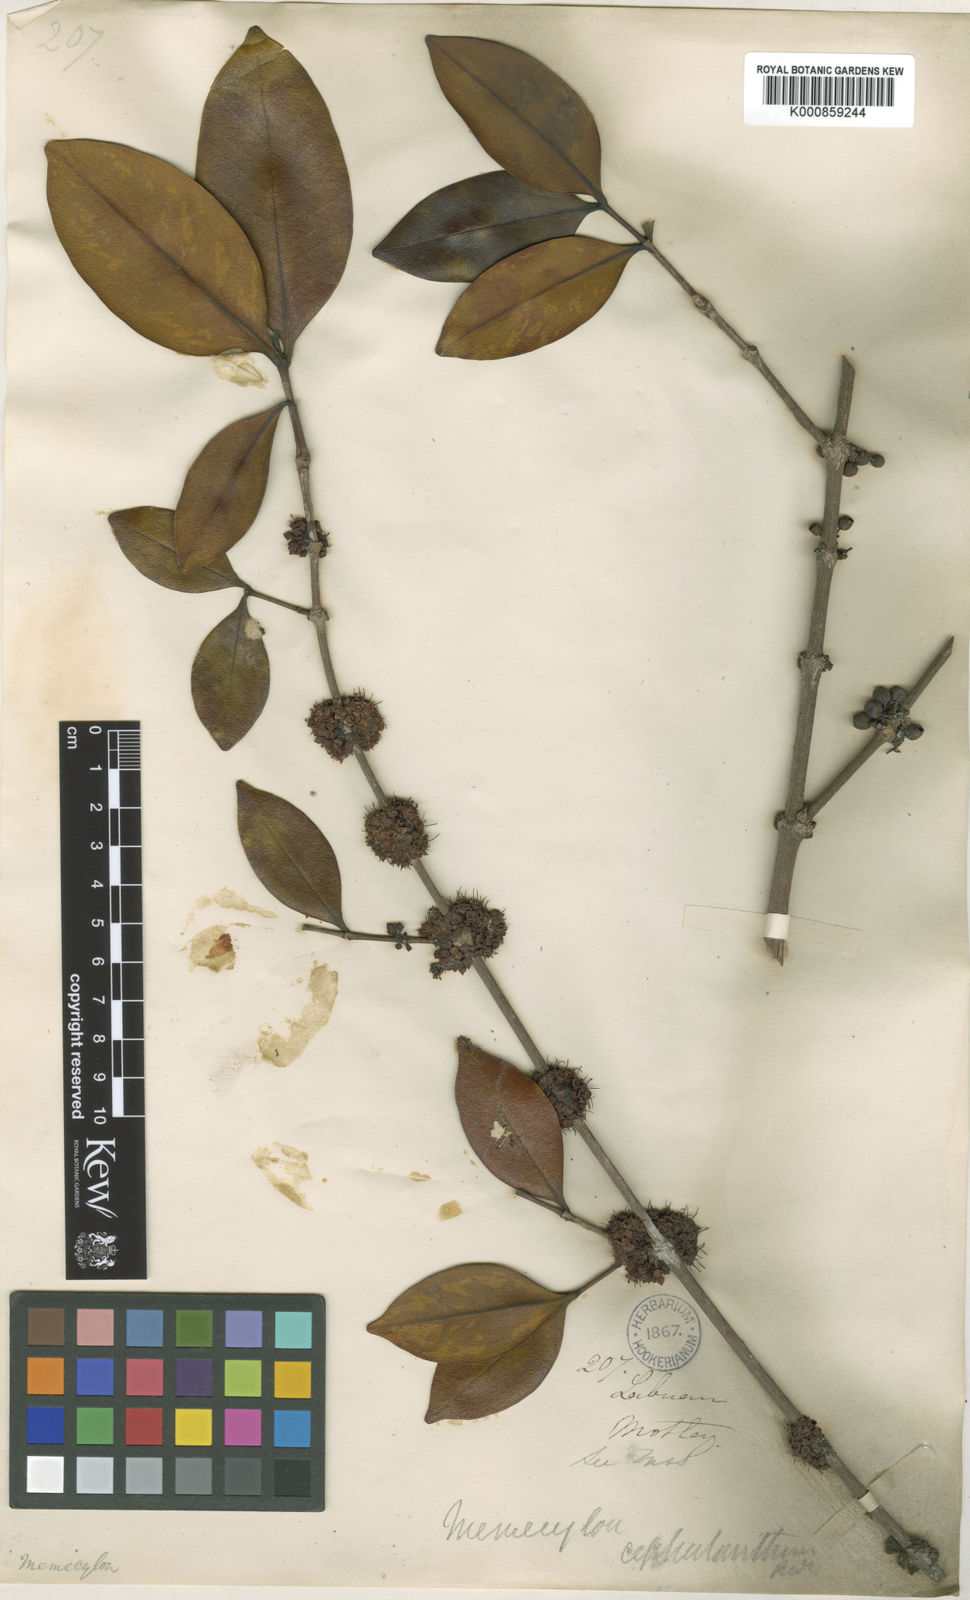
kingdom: Plantae
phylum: Tracheophyta
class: Magnoliopsida
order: Myrtales
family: Melastomataceae
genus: Memecylon
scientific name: Memecylon campanulatum
